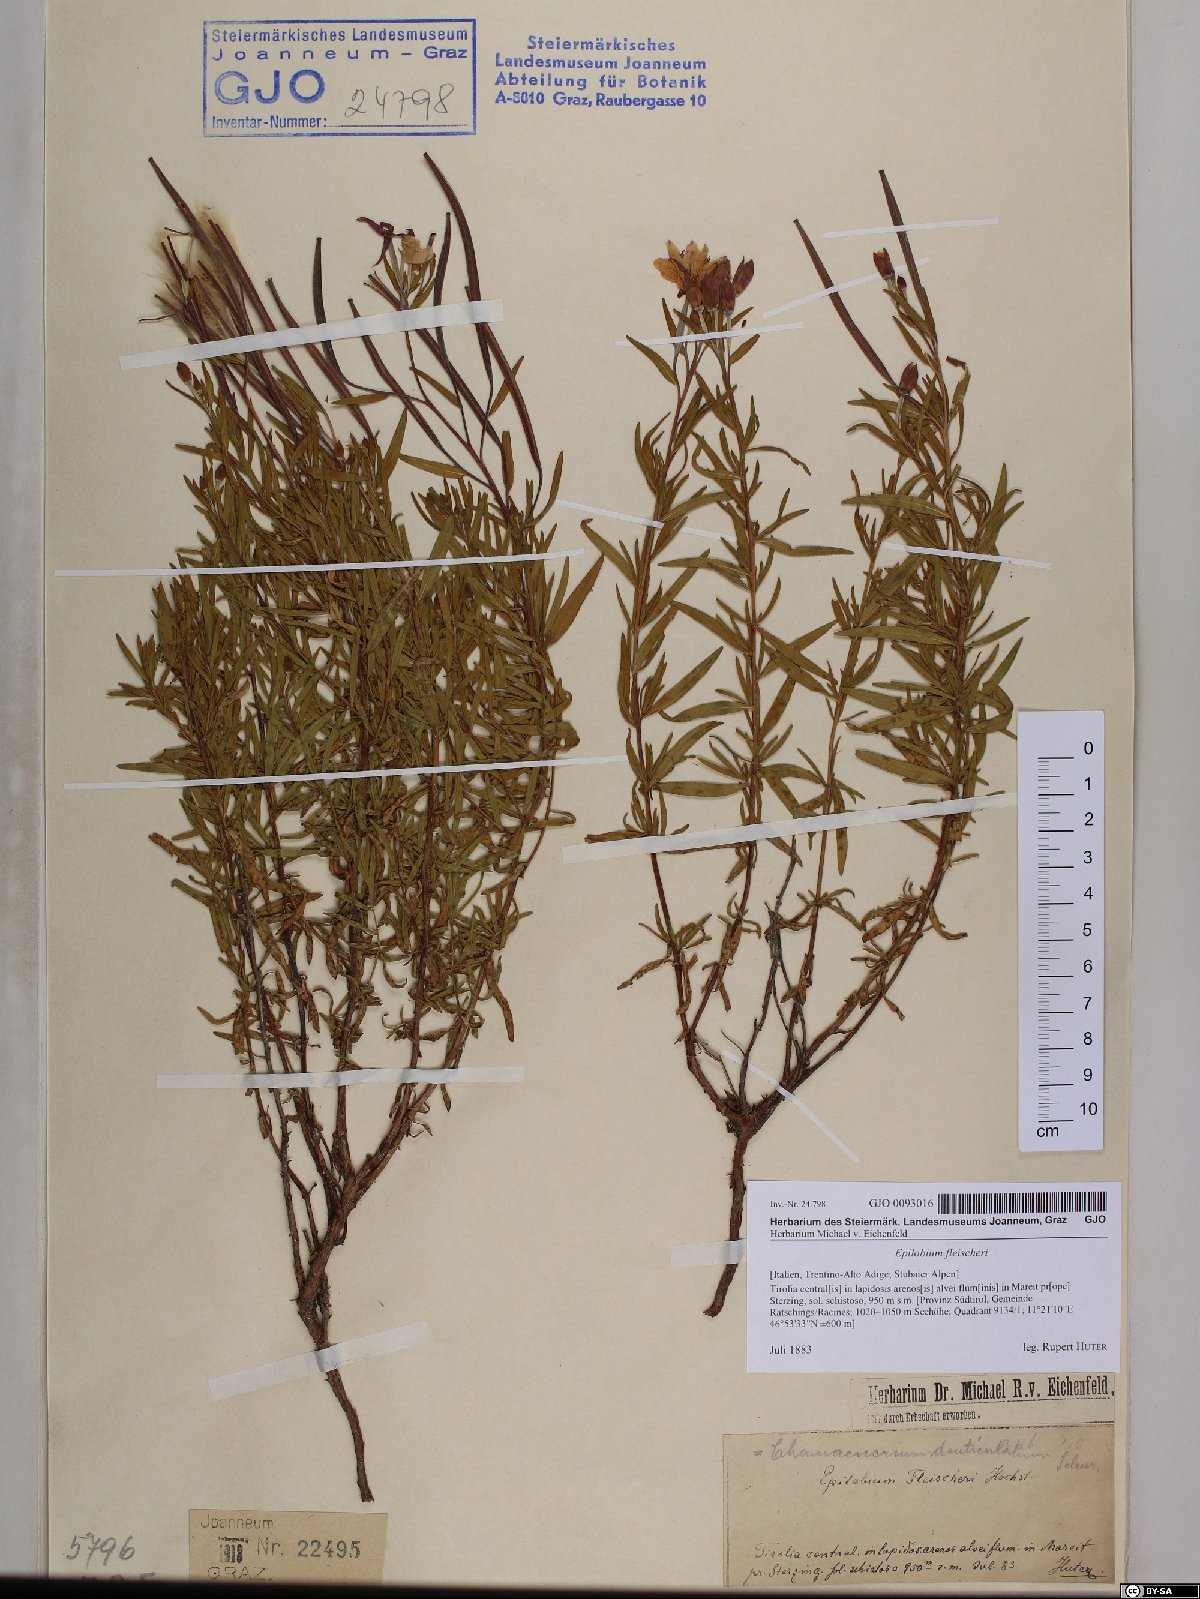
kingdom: Plantae
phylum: Tracheophyta
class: Magnoliopsida
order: Myrtales
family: Onagraceae
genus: Chamaenerion
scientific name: Chamaenerion fleischeri
